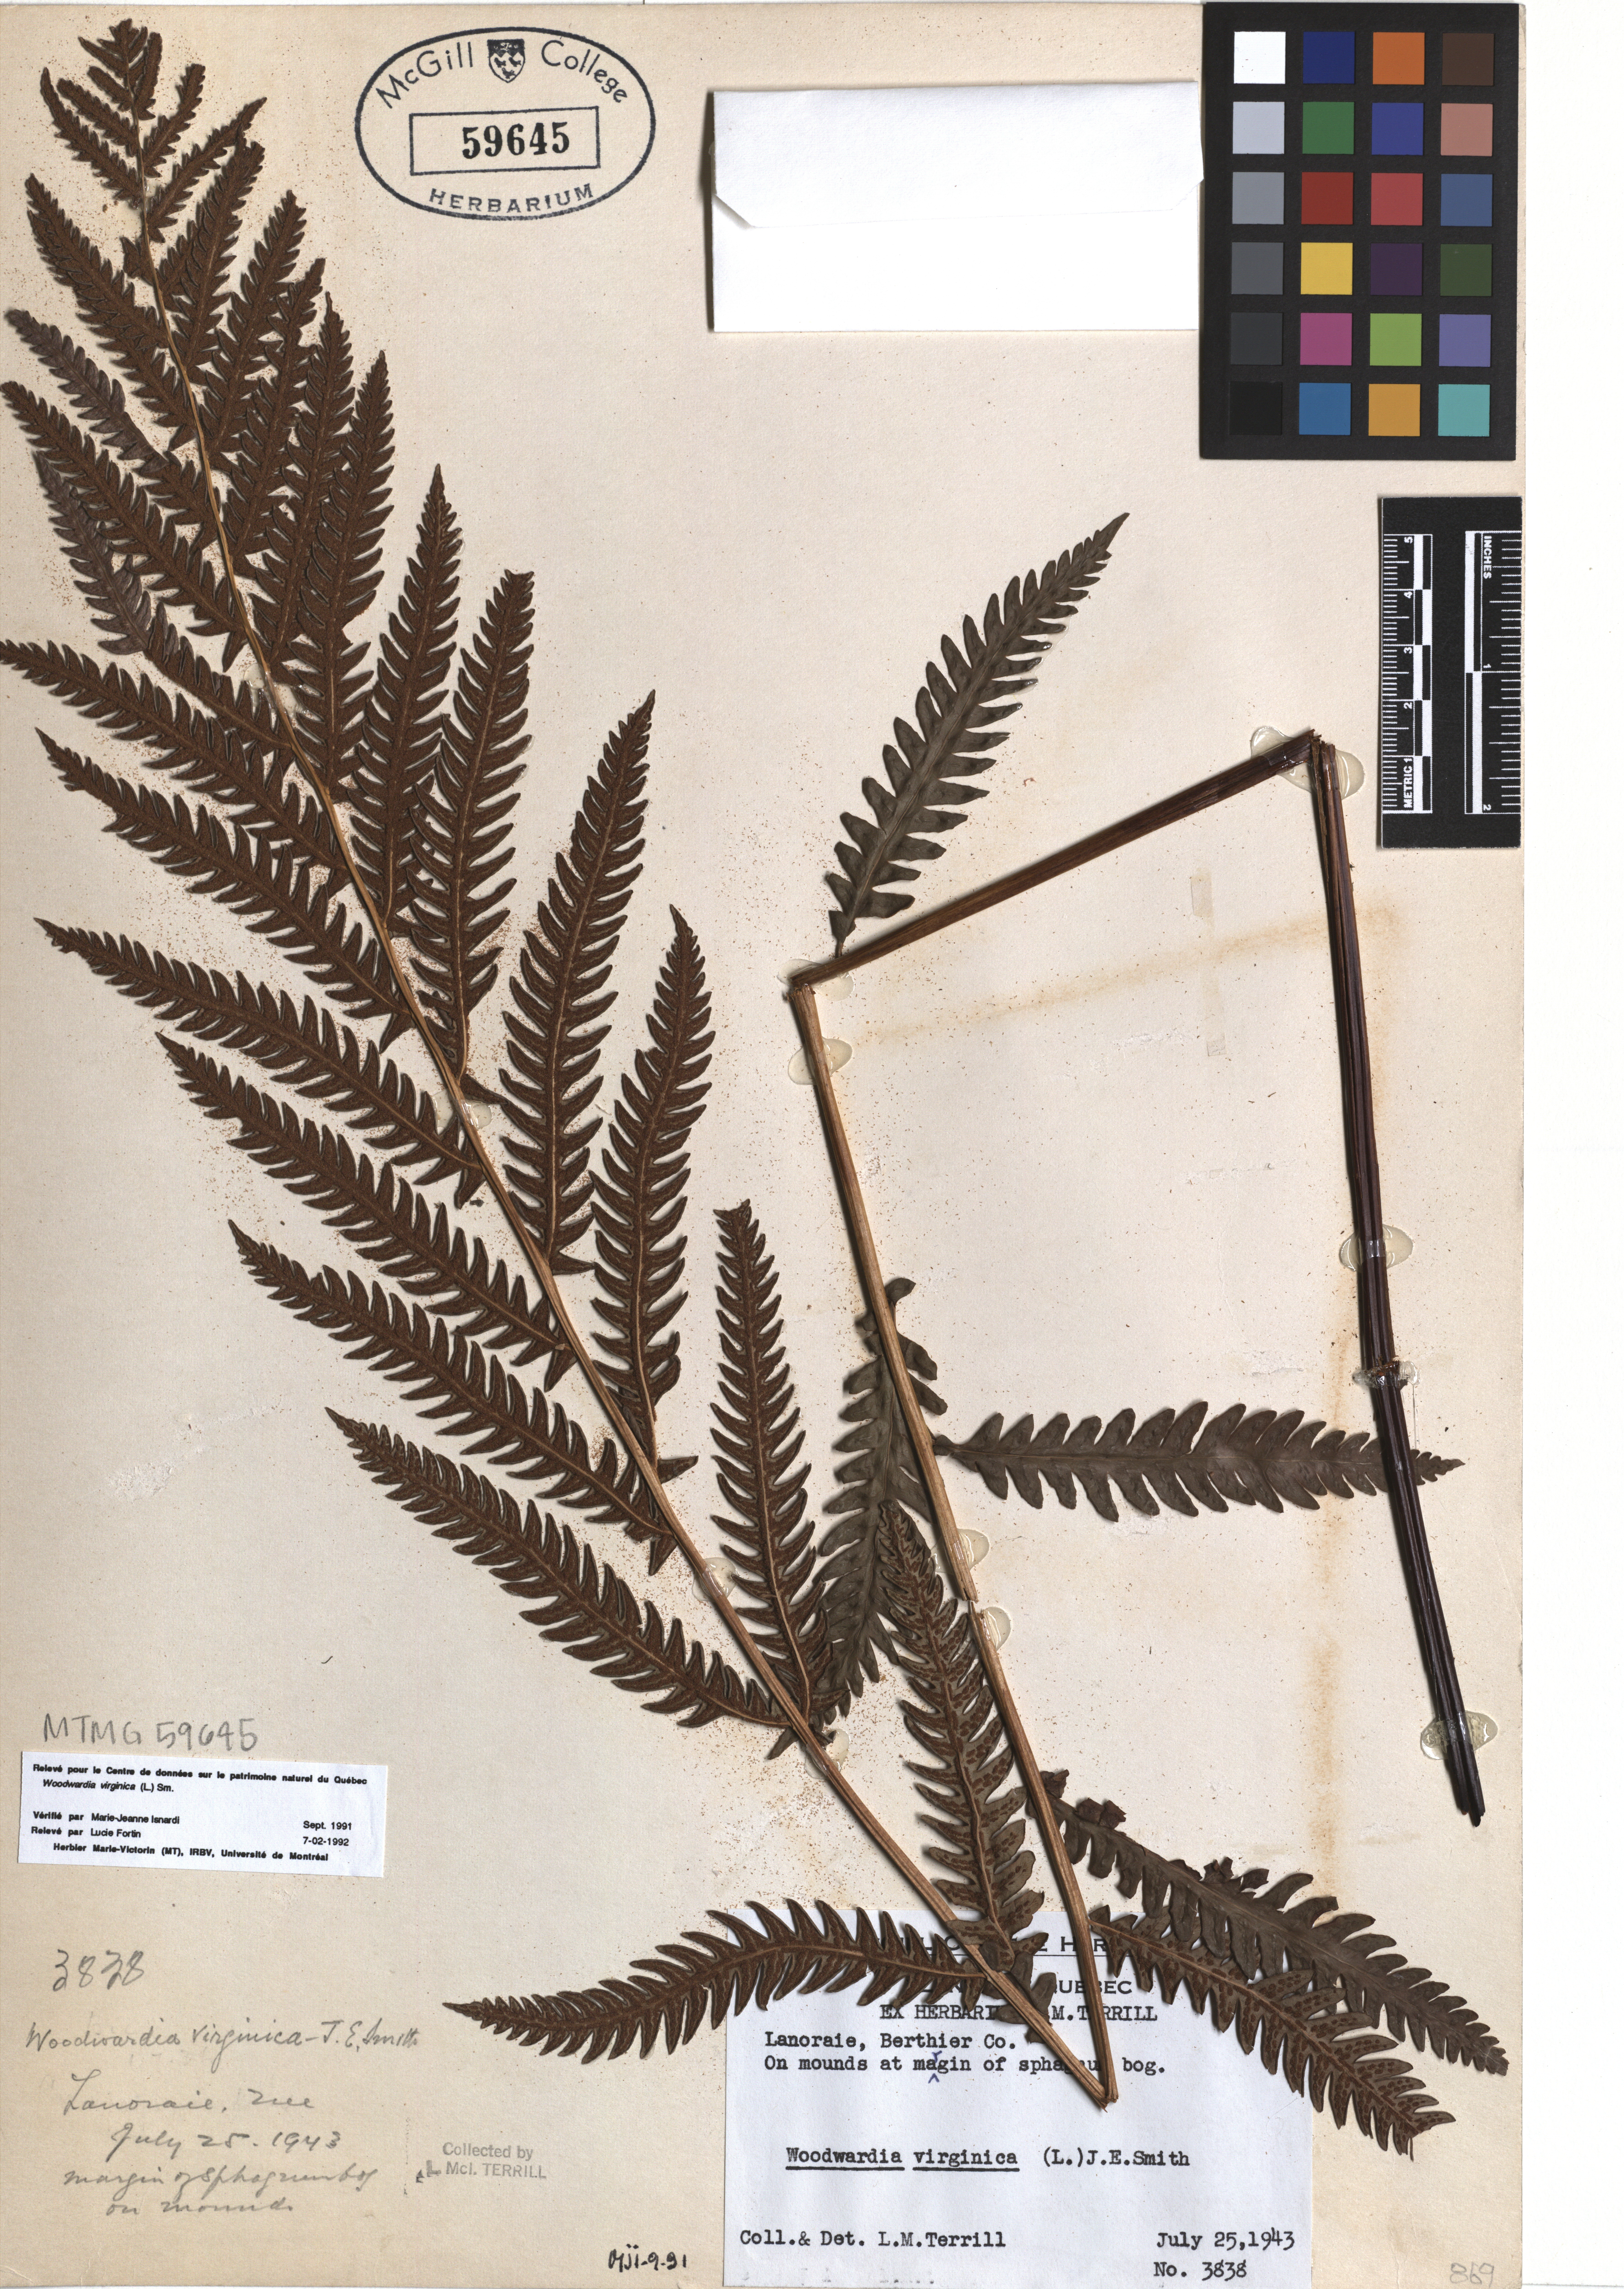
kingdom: Plantae
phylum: Tracheophyta
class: Polypodiopsida
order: Polypodiales
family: Blechnaceae
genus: Anchistea
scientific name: Anchistea virginica
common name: Virginia chain fern
